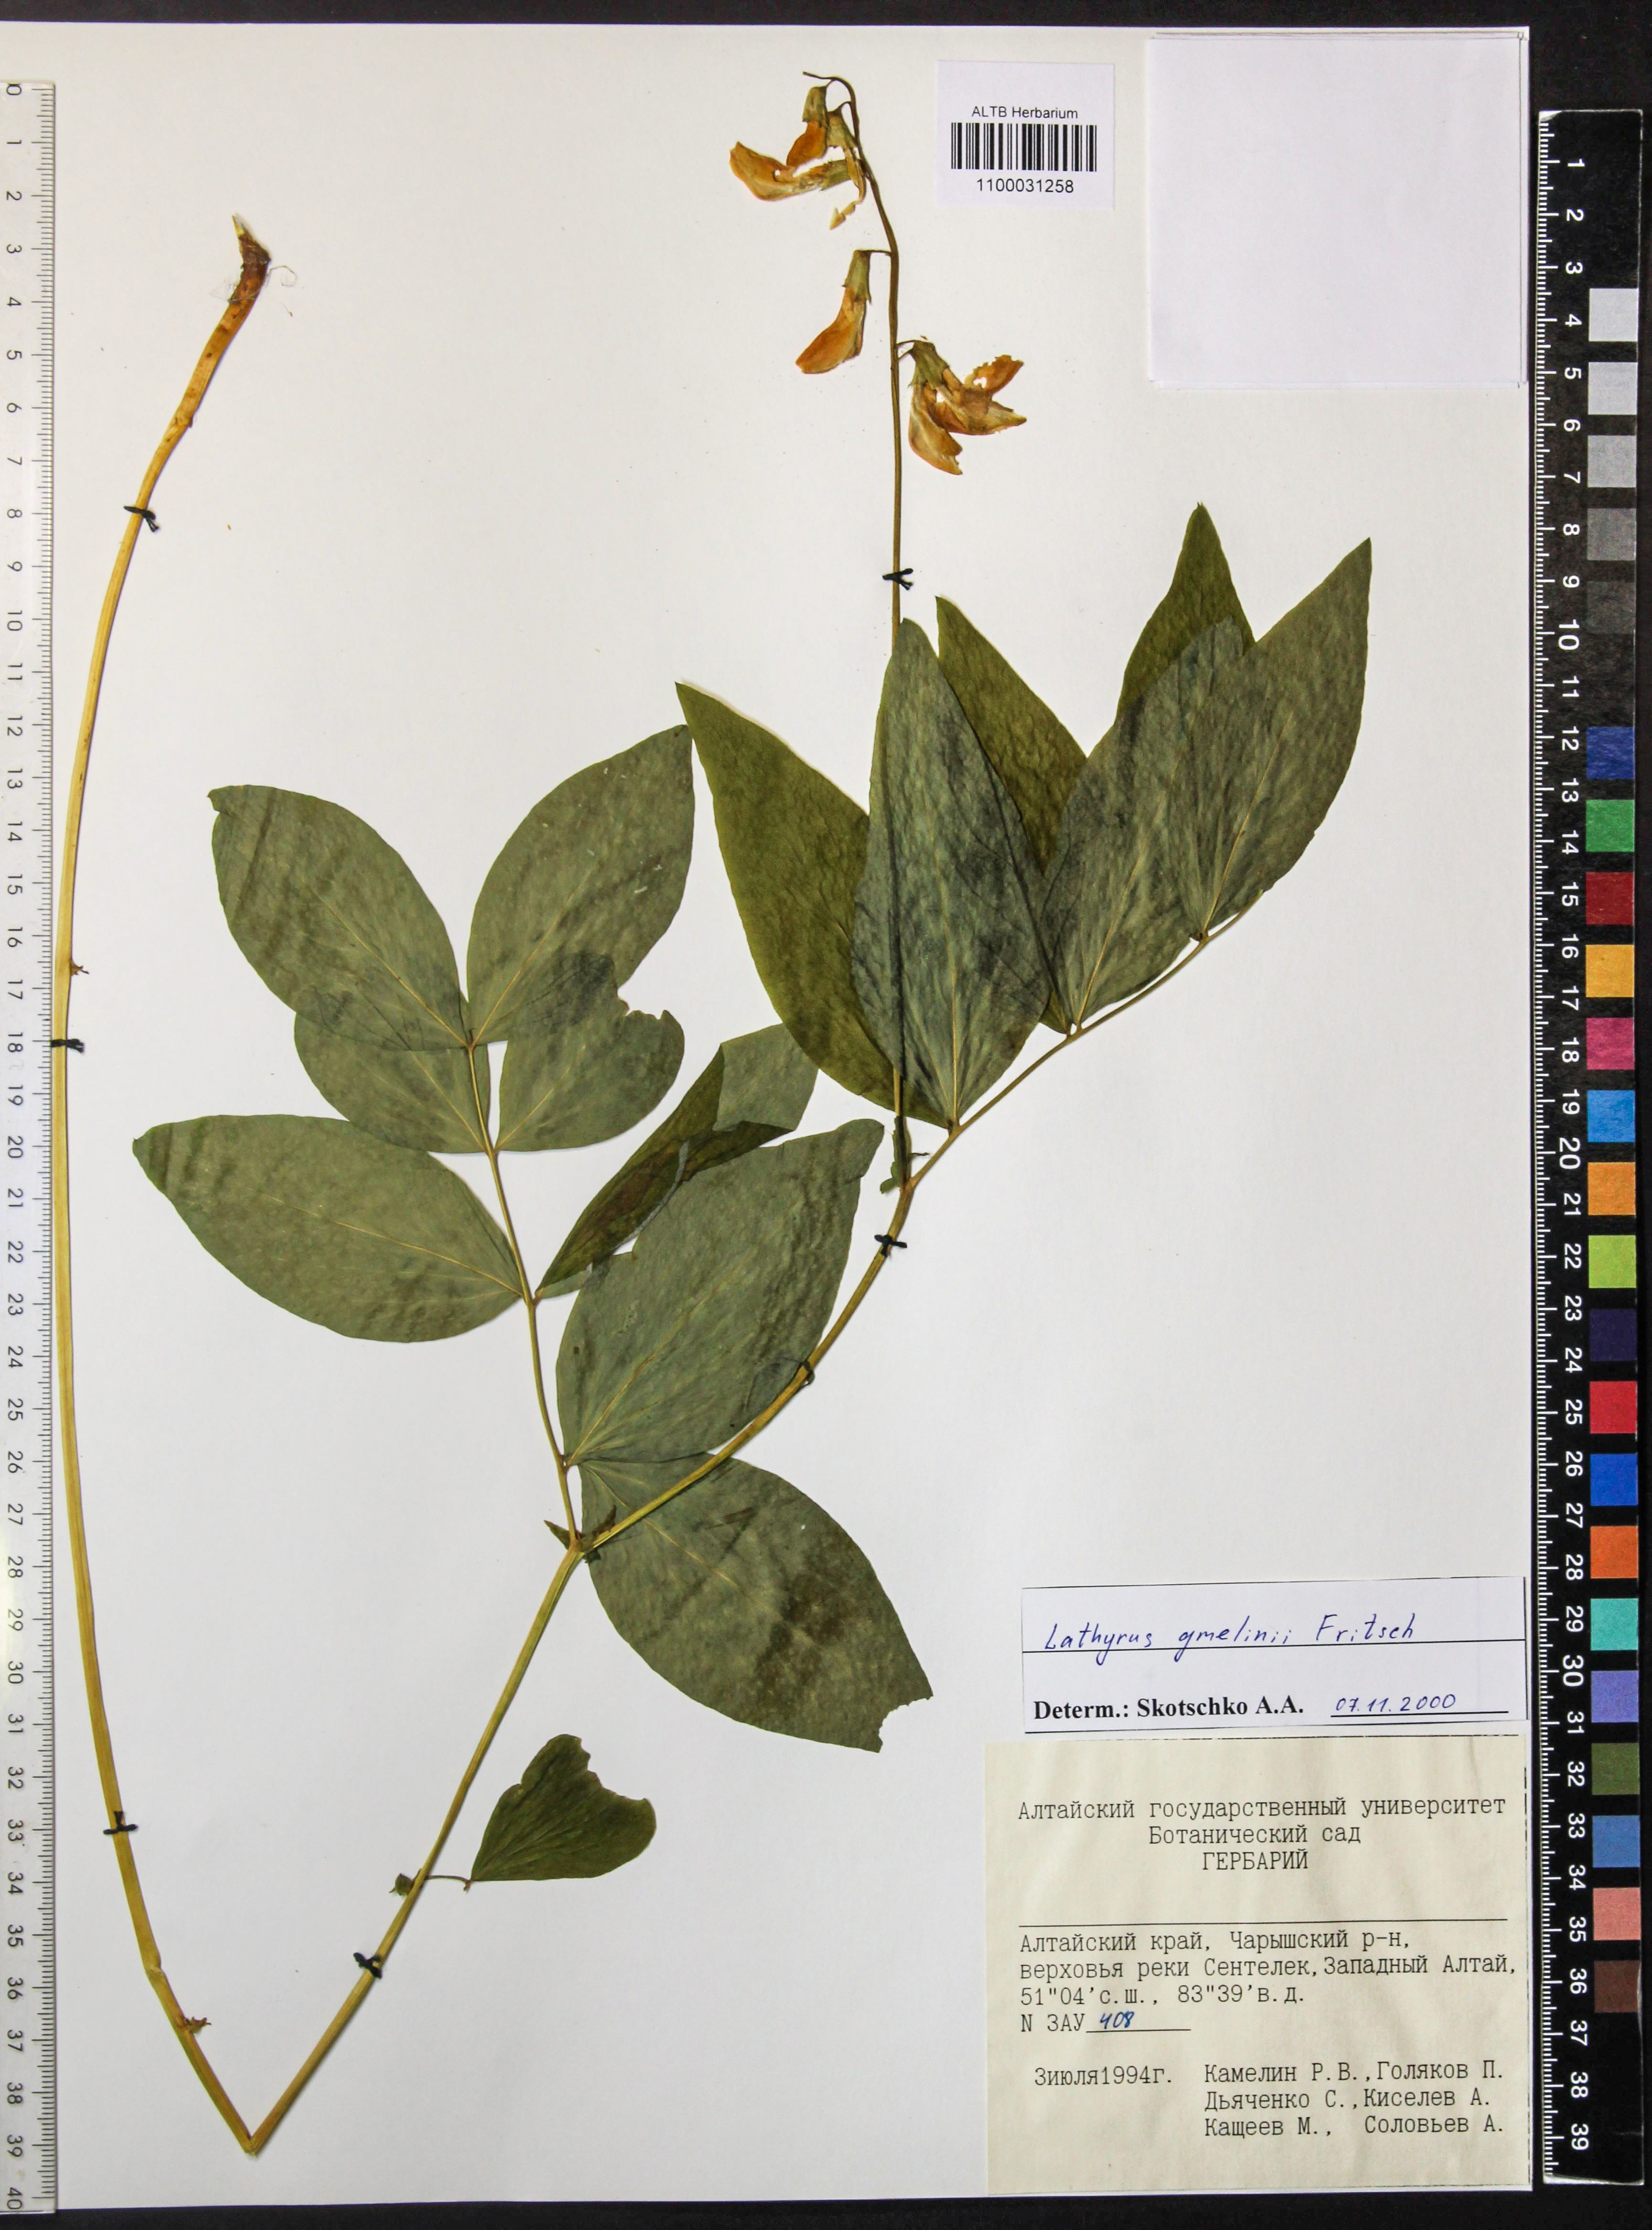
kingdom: Plantae
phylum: Tracheophyta
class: Magnoliopsida
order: Fabales
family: Fabaceae
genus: Lathyrus
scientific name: Lathyrus gmelinii
